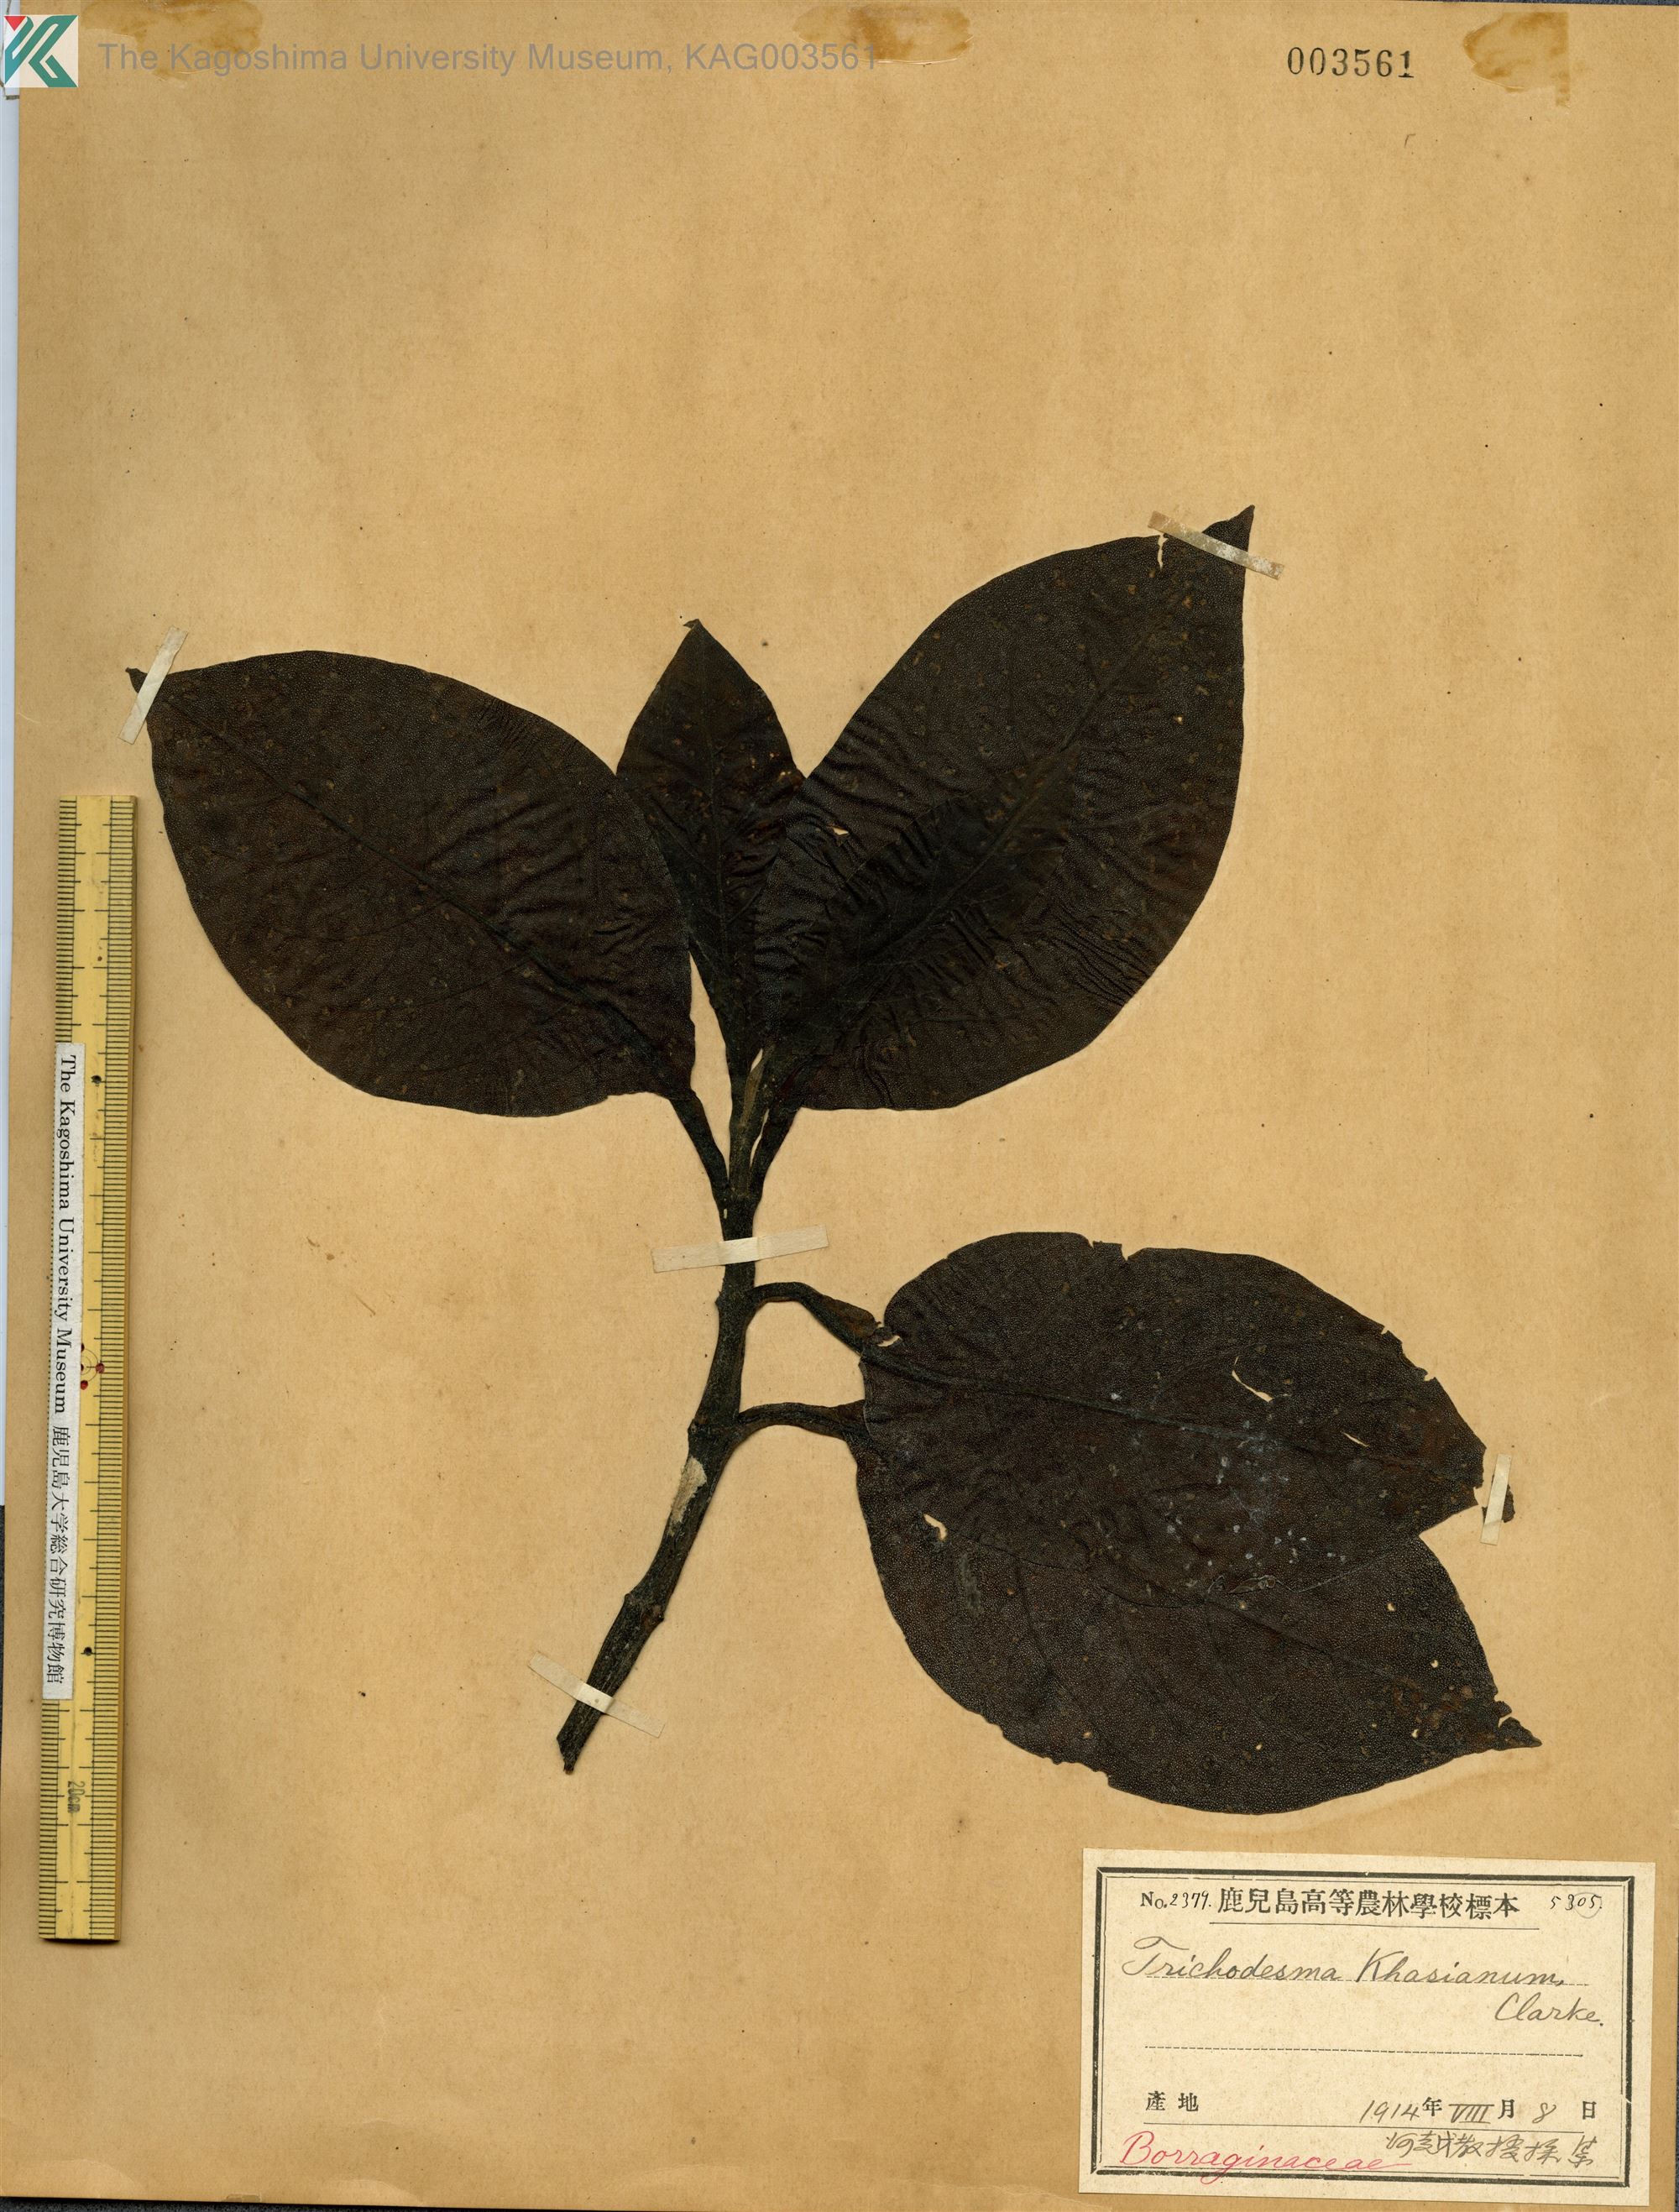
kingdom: Plantae
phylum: Tracheophyta
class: Magnoliopsida
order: Boraginales
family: Boraginaceae
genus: Trichodesma
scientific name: Trichodesma khasianum
